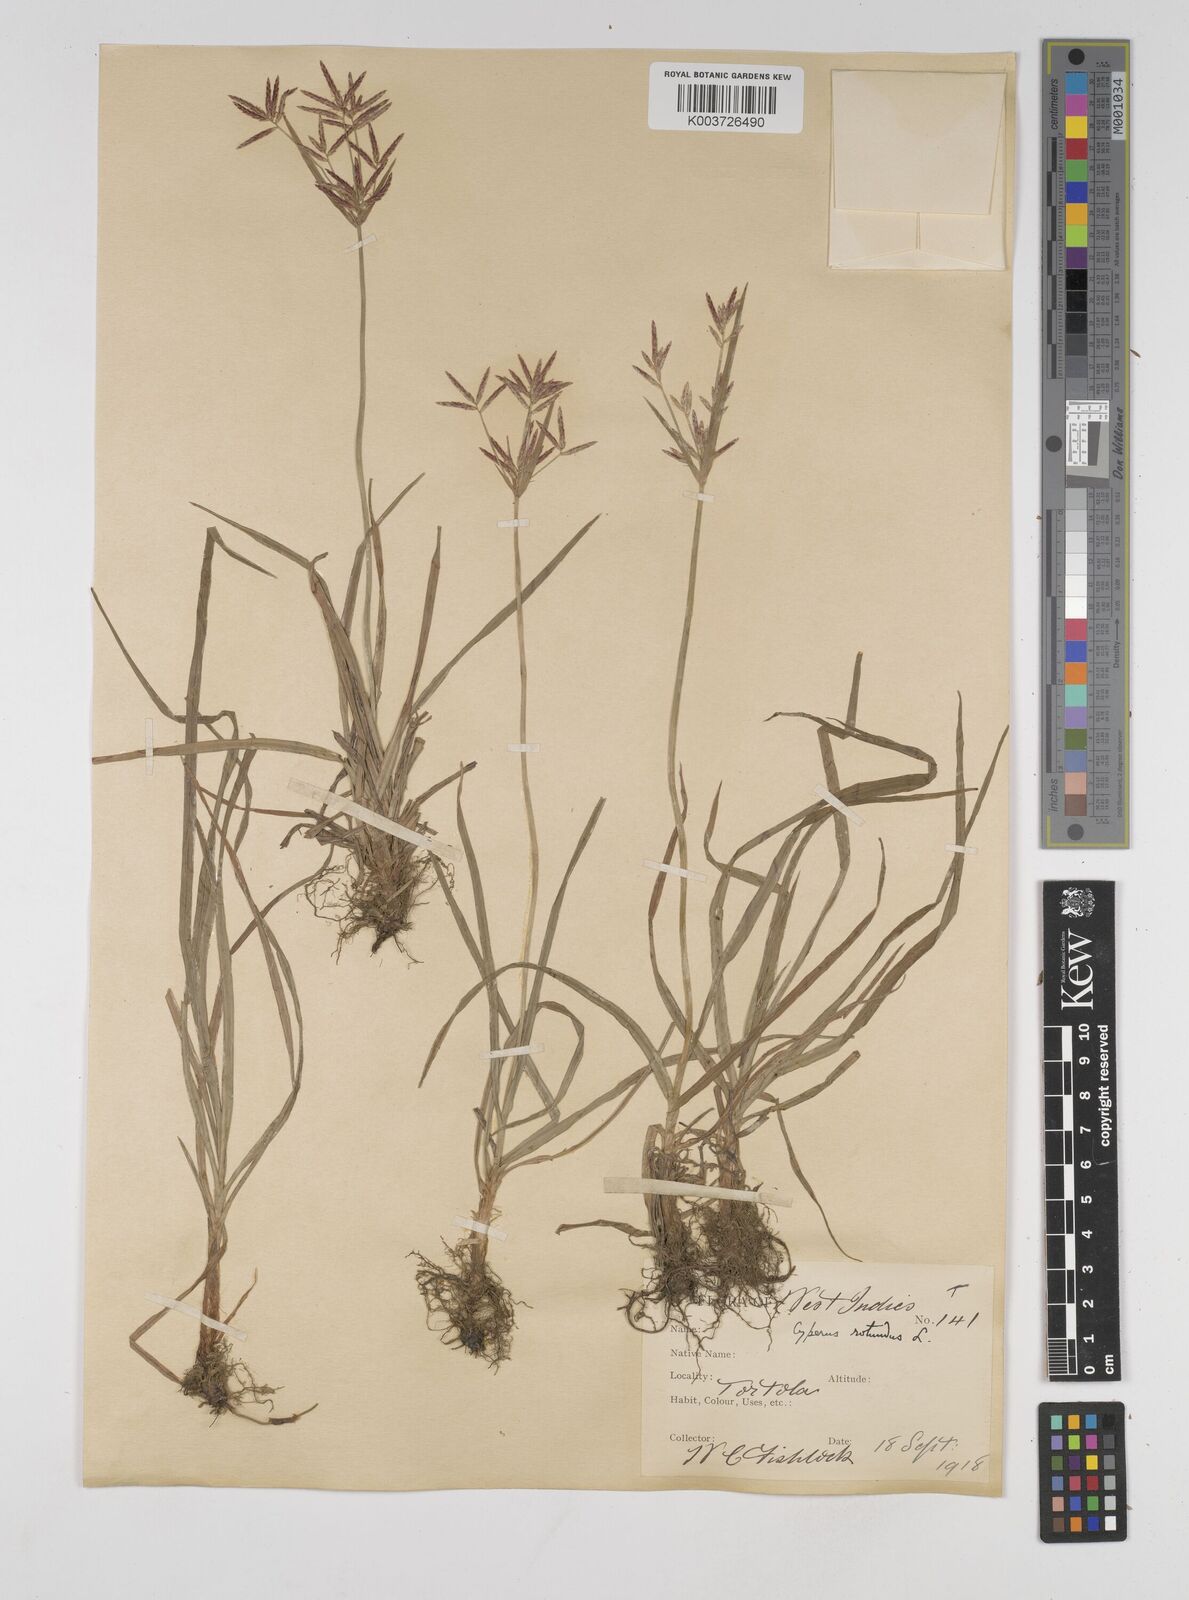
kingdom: Plantae
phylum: Tracheophyta
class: Liliopsida
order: Poales
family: Cyperaceae
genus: Cyperus
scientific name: Cyperus rotundus
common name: Nutgrass
